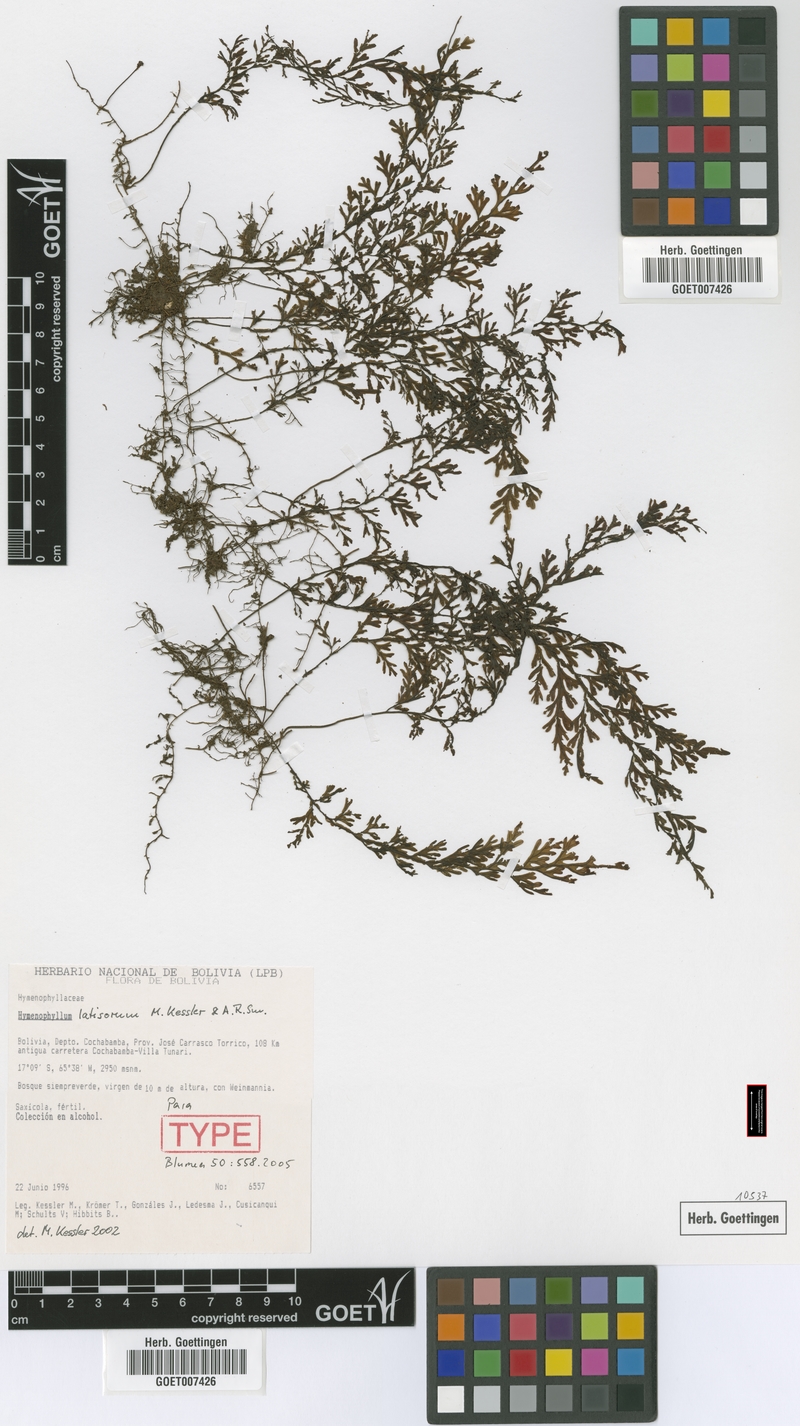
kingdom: Plantae
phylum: Tracheophyta
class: Polypodiopsida
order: Hymenophyllales
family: Hymenophyllaceae
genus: Hymenophyllum
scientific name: Hymenophyllum latisorum
